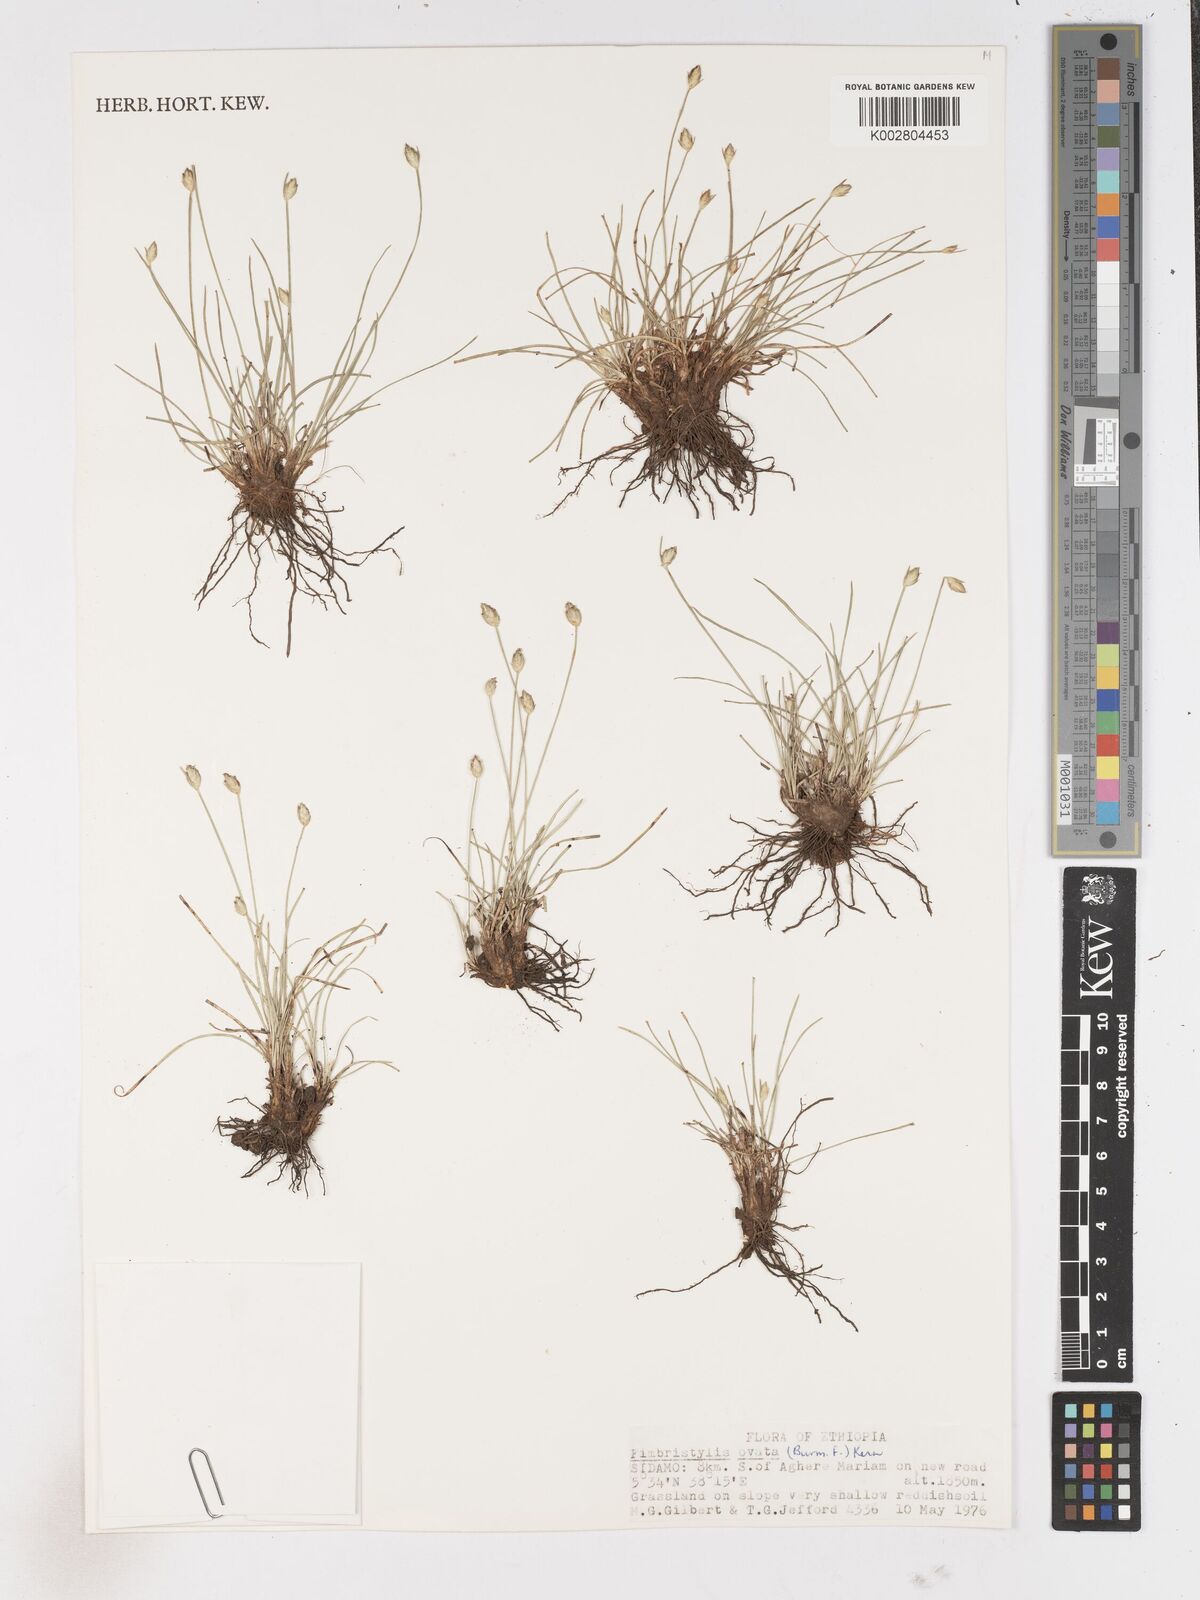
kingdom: Plantae
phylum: Tracheophyta
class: Liliopsida
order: Poales
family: Cyperaceae
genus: Abildgaardia
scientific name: Abildgaardia ovata
